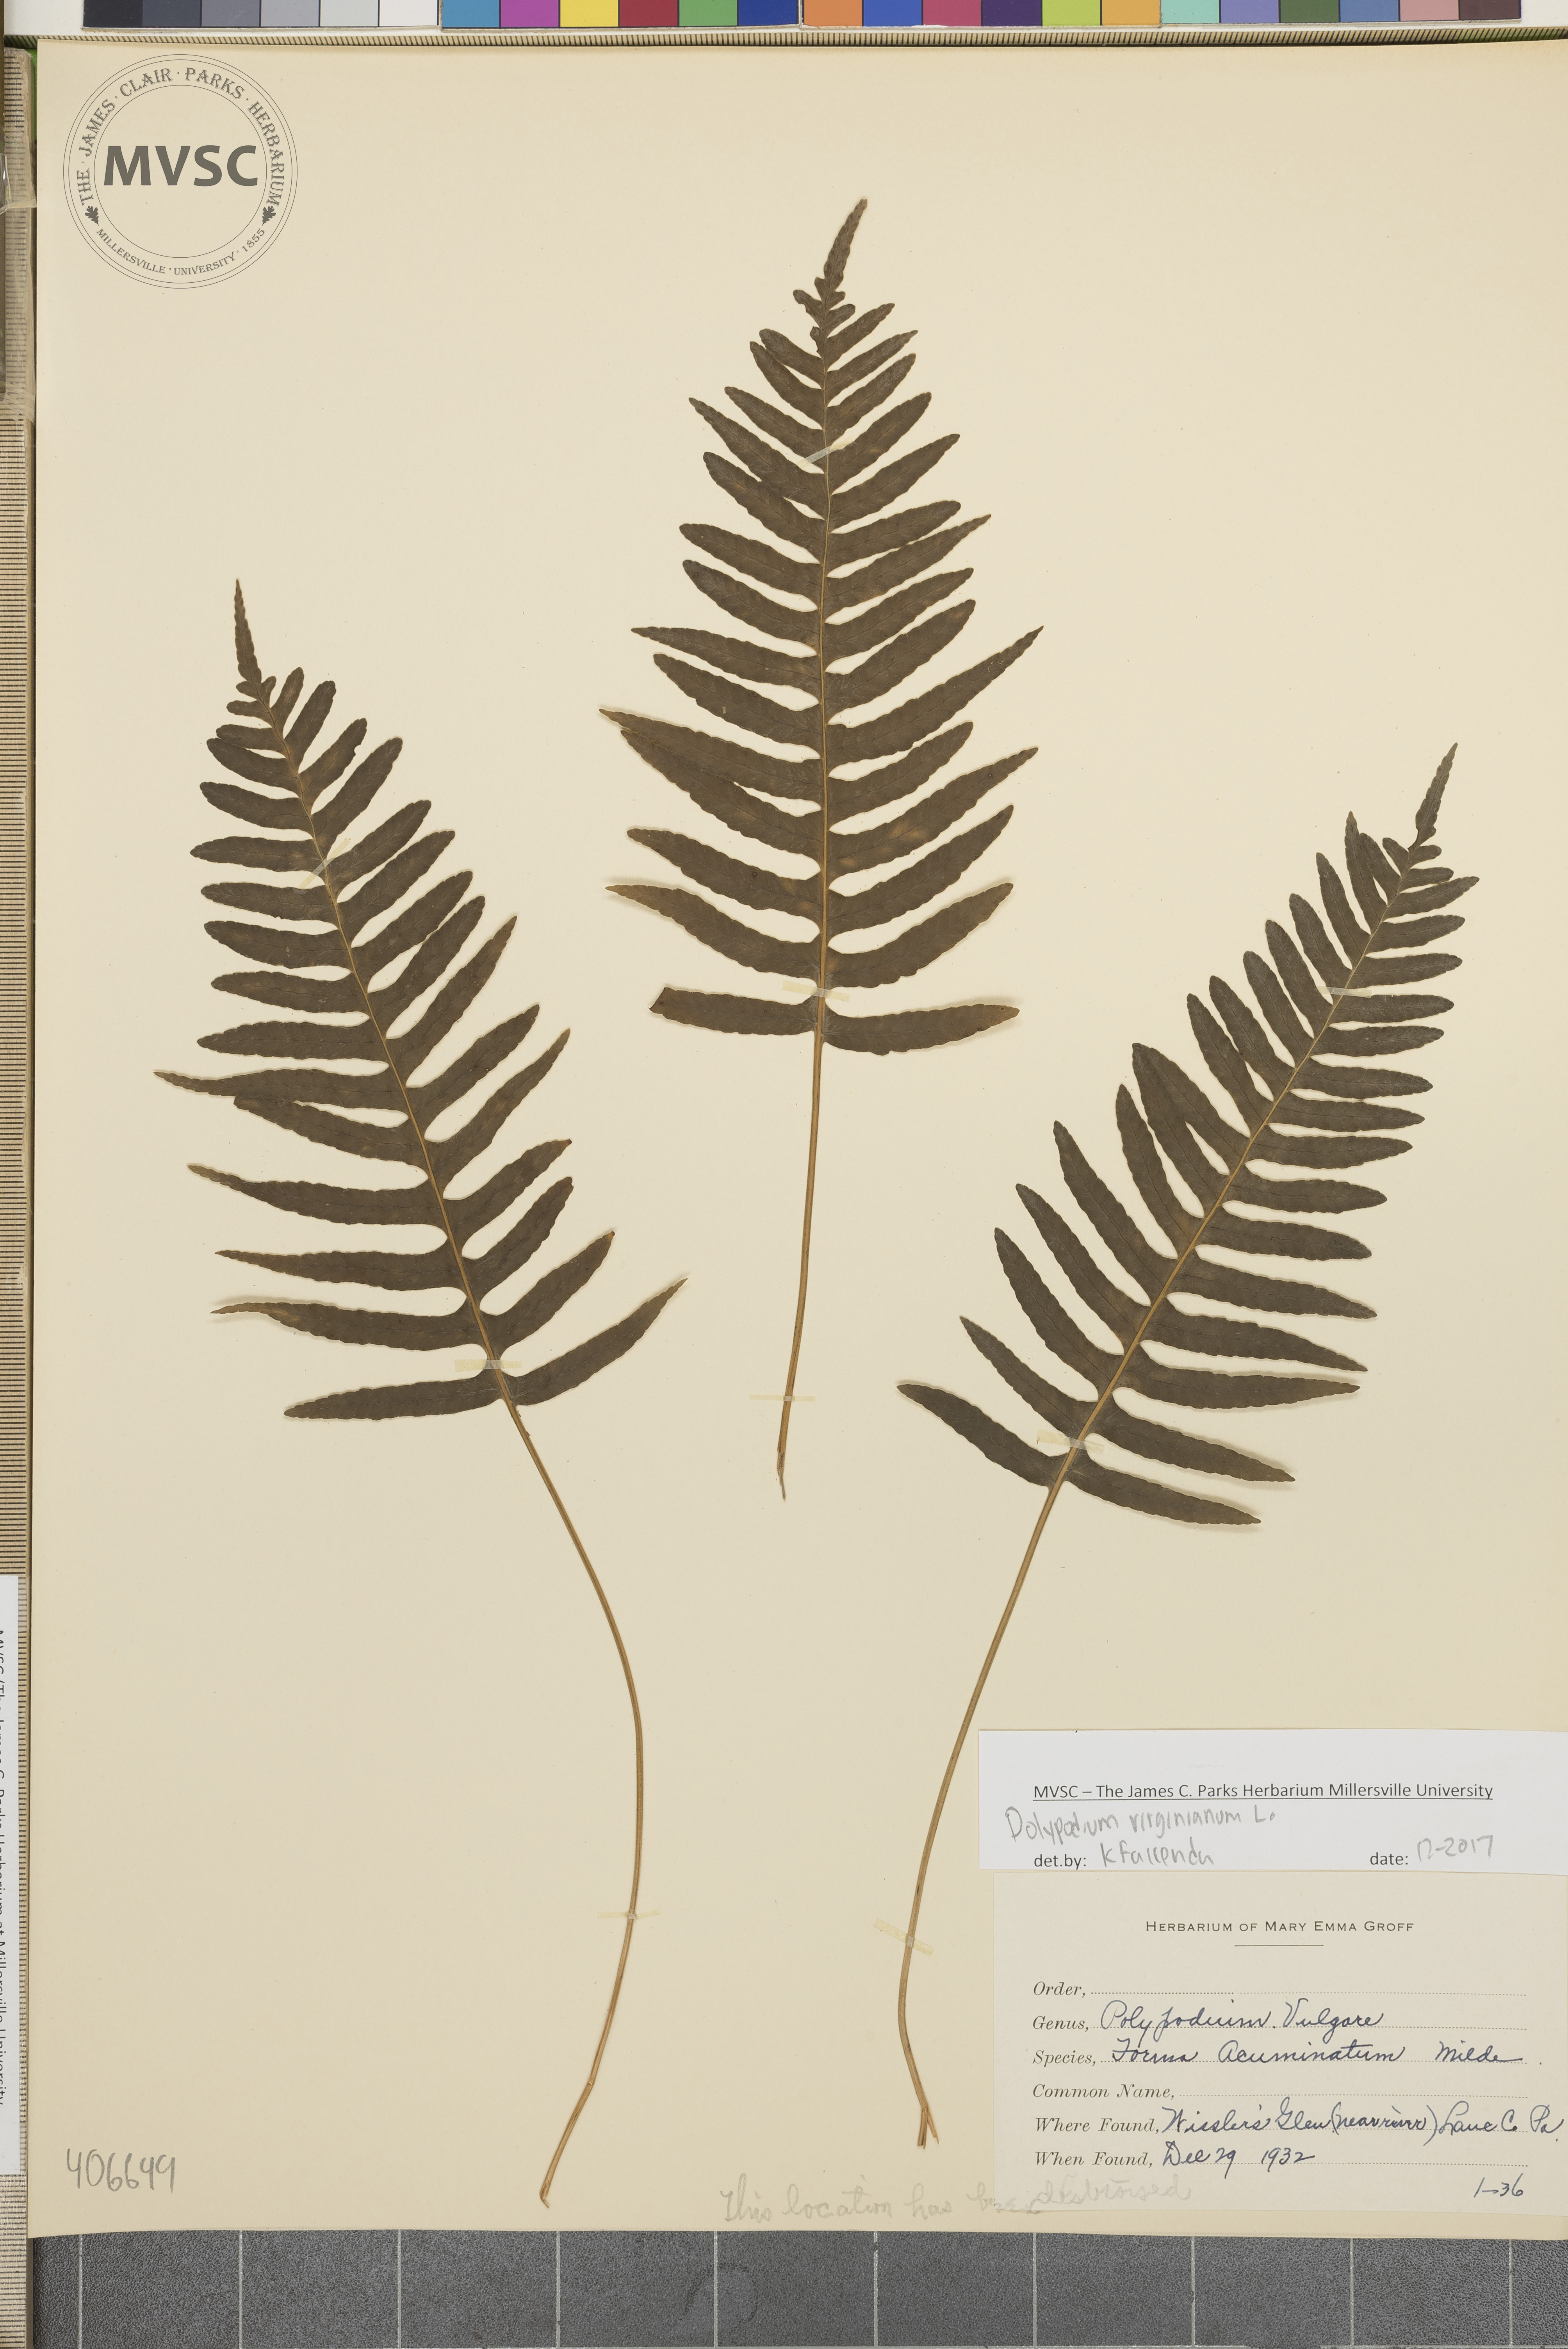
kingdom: Plantae
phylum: Tracheophyta
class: Polypodiopsida
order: Polypodiales
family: Polypodiaceae
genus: Polypodium
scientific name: Polypodium virginianum
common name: American wall fern
